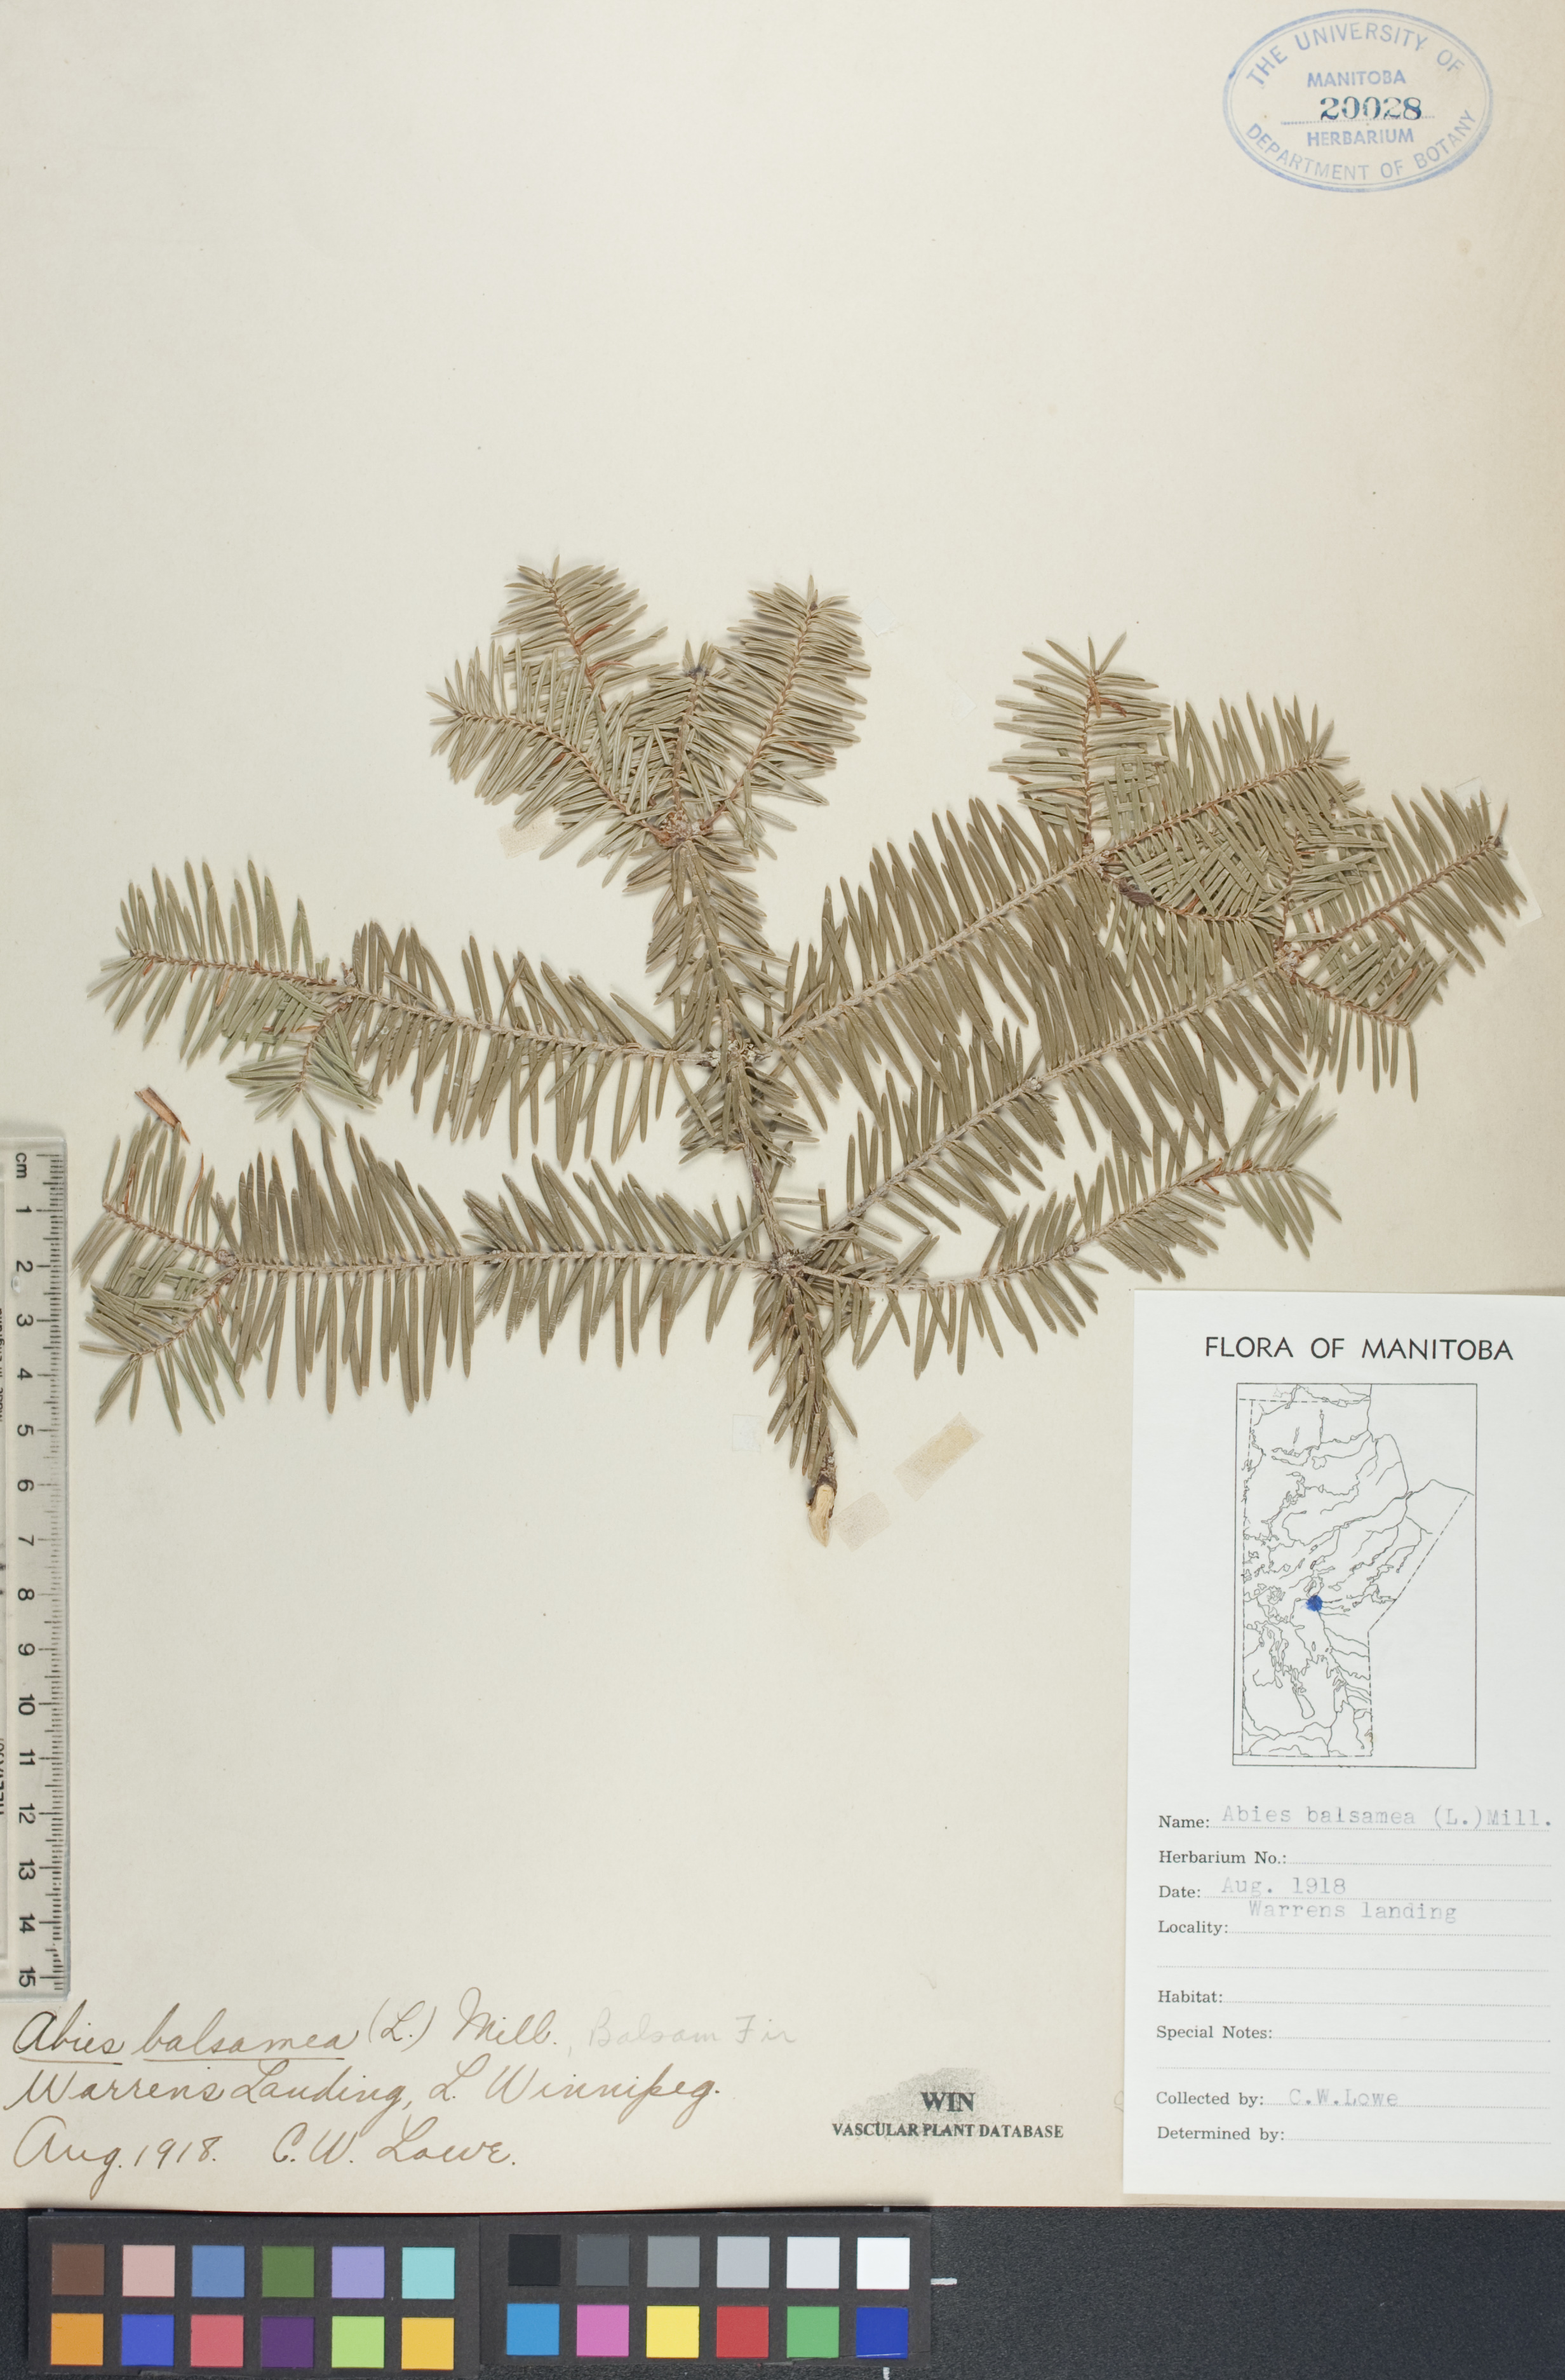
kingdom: Plantae
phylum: Tracheophyta
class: Pinopsida
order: Pinales
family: Pinaceae
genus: Abies
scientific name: Abies balsamea
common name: Balsam fir
